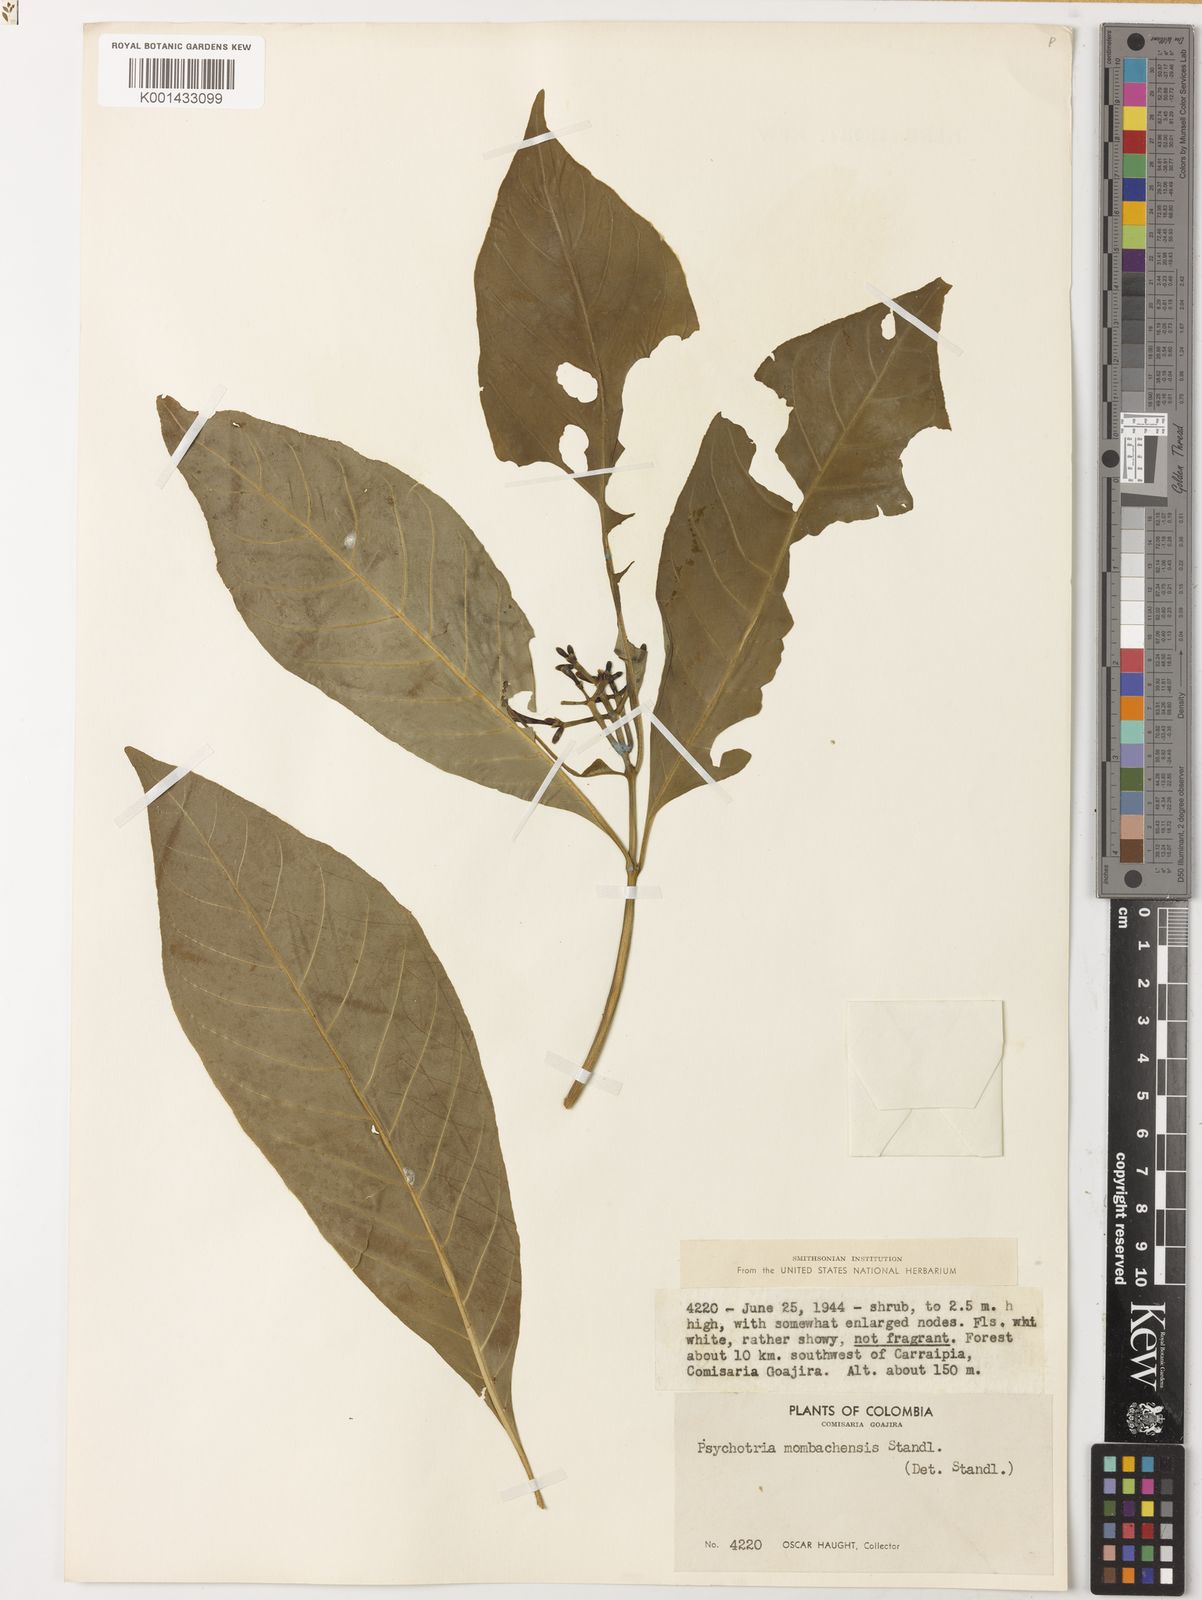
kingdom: Plantae
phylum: Tracheophyta
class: Magnoliopsida
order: Gentianales
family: Rubiaceae
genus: Palicourea
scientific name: Palicourea domingensis
